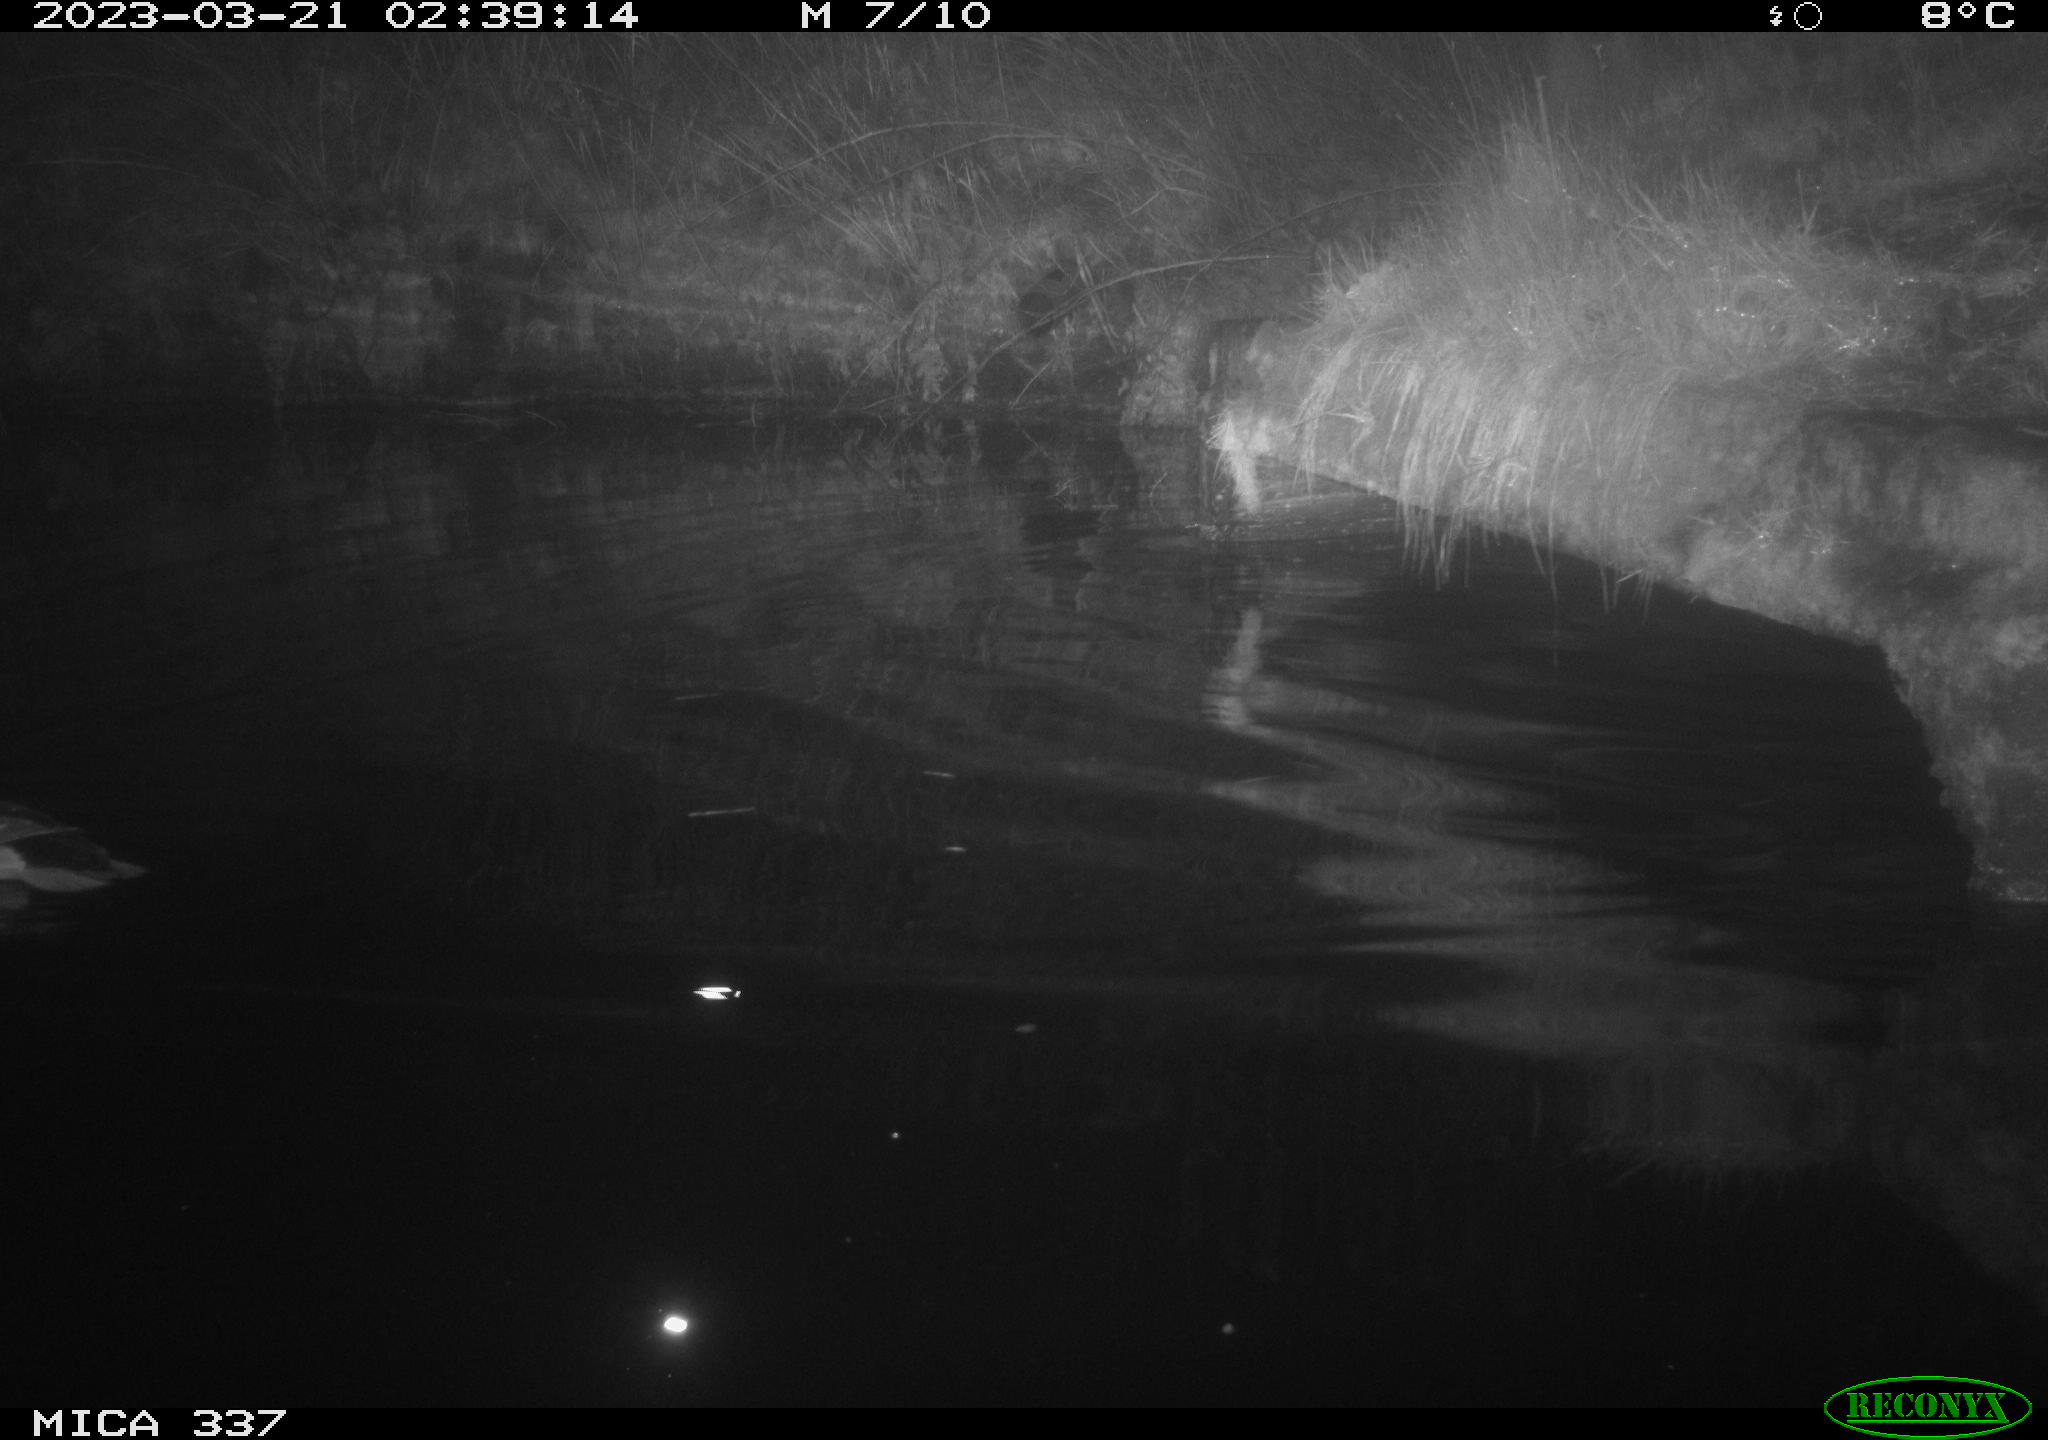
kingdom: Animalia
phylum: Chordata
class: Aves
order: Anseriformes
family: Anatidae
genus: Anas
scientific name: Anas
